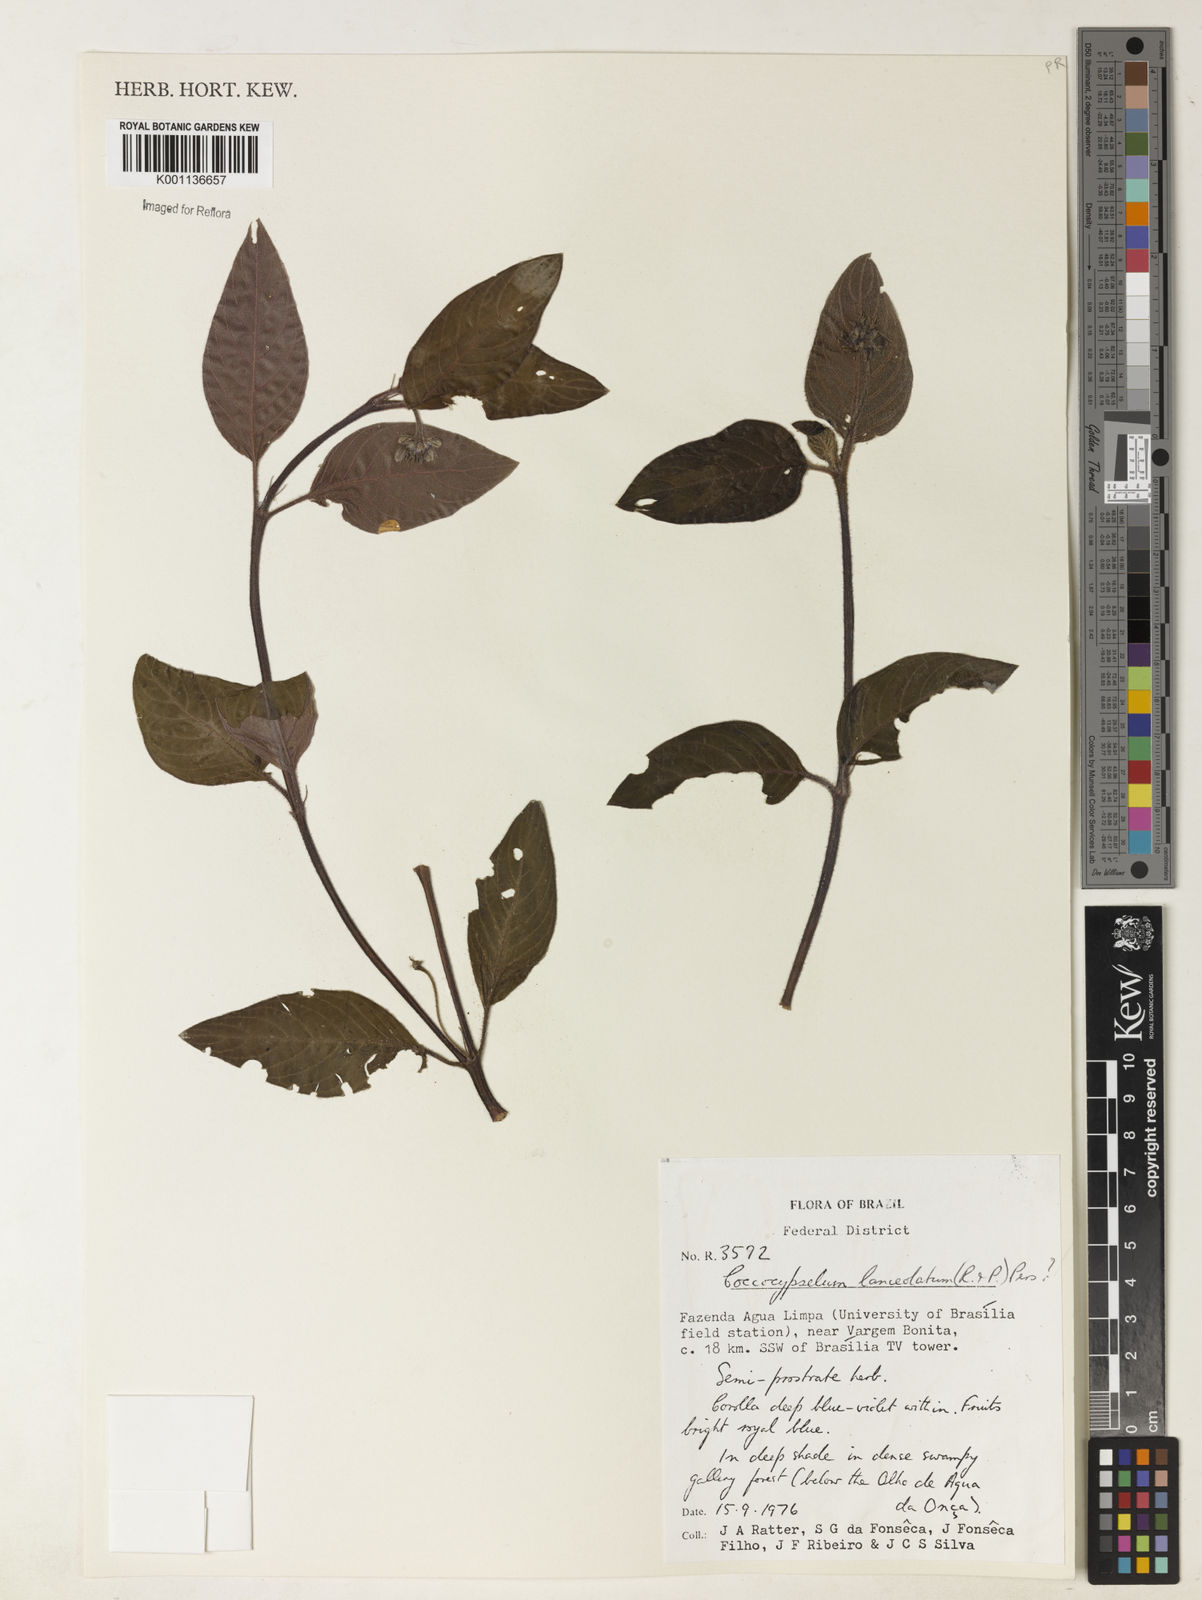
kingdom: Plantae
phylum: Tracheophyta
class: Magnoliopsida
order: Gentianales
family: Rubiaceae
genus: Coccocypselum
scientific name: Coccocypselum lanceolatum
